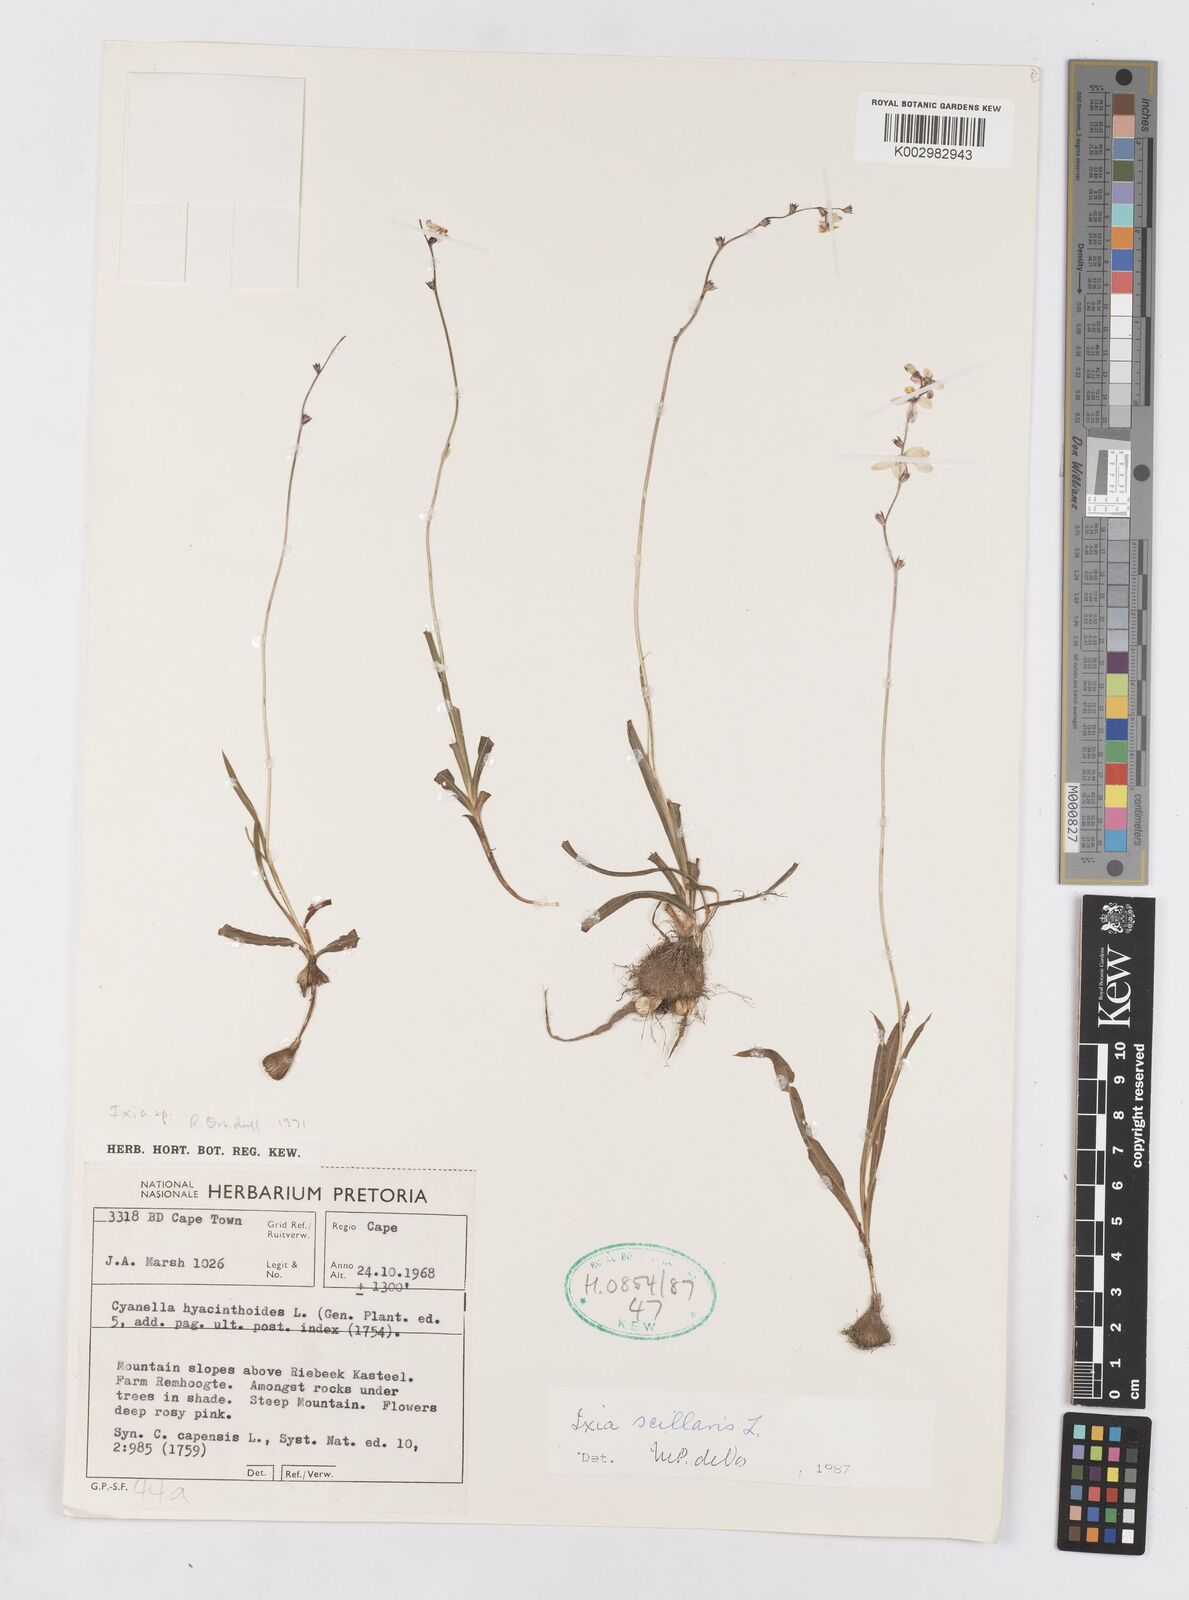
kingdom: Plantae
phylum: Tracheophyta
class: Liliopsida
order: Asparagales
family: Iridaceae
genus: Ixia
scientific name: Ixia scillaris
